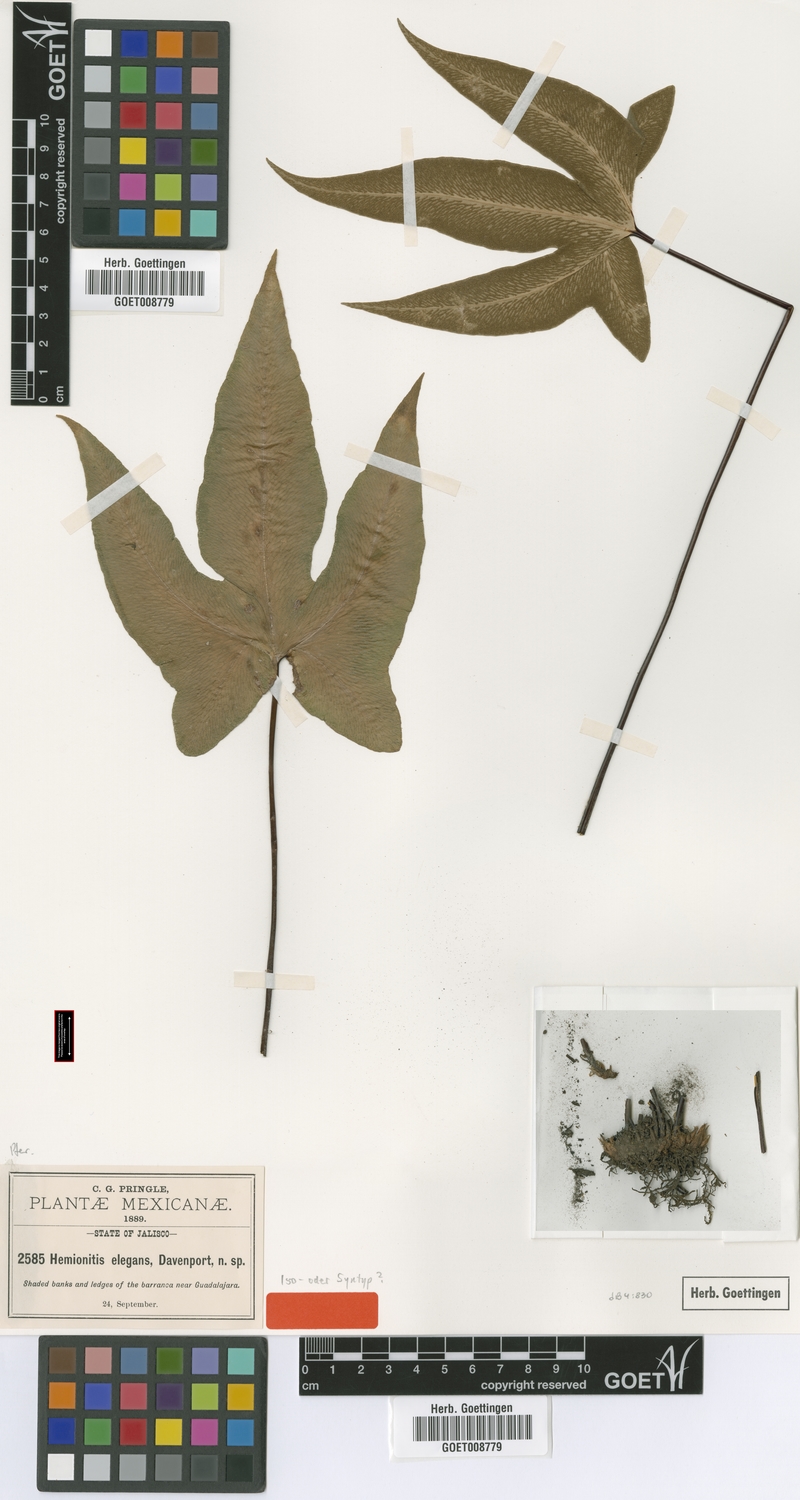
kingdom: Plantae
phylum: Tracheophyta
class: Polypodiopsida
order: Polypodiales
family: Pteridaceae
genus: Bommeria
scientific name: Bommeria elegans
